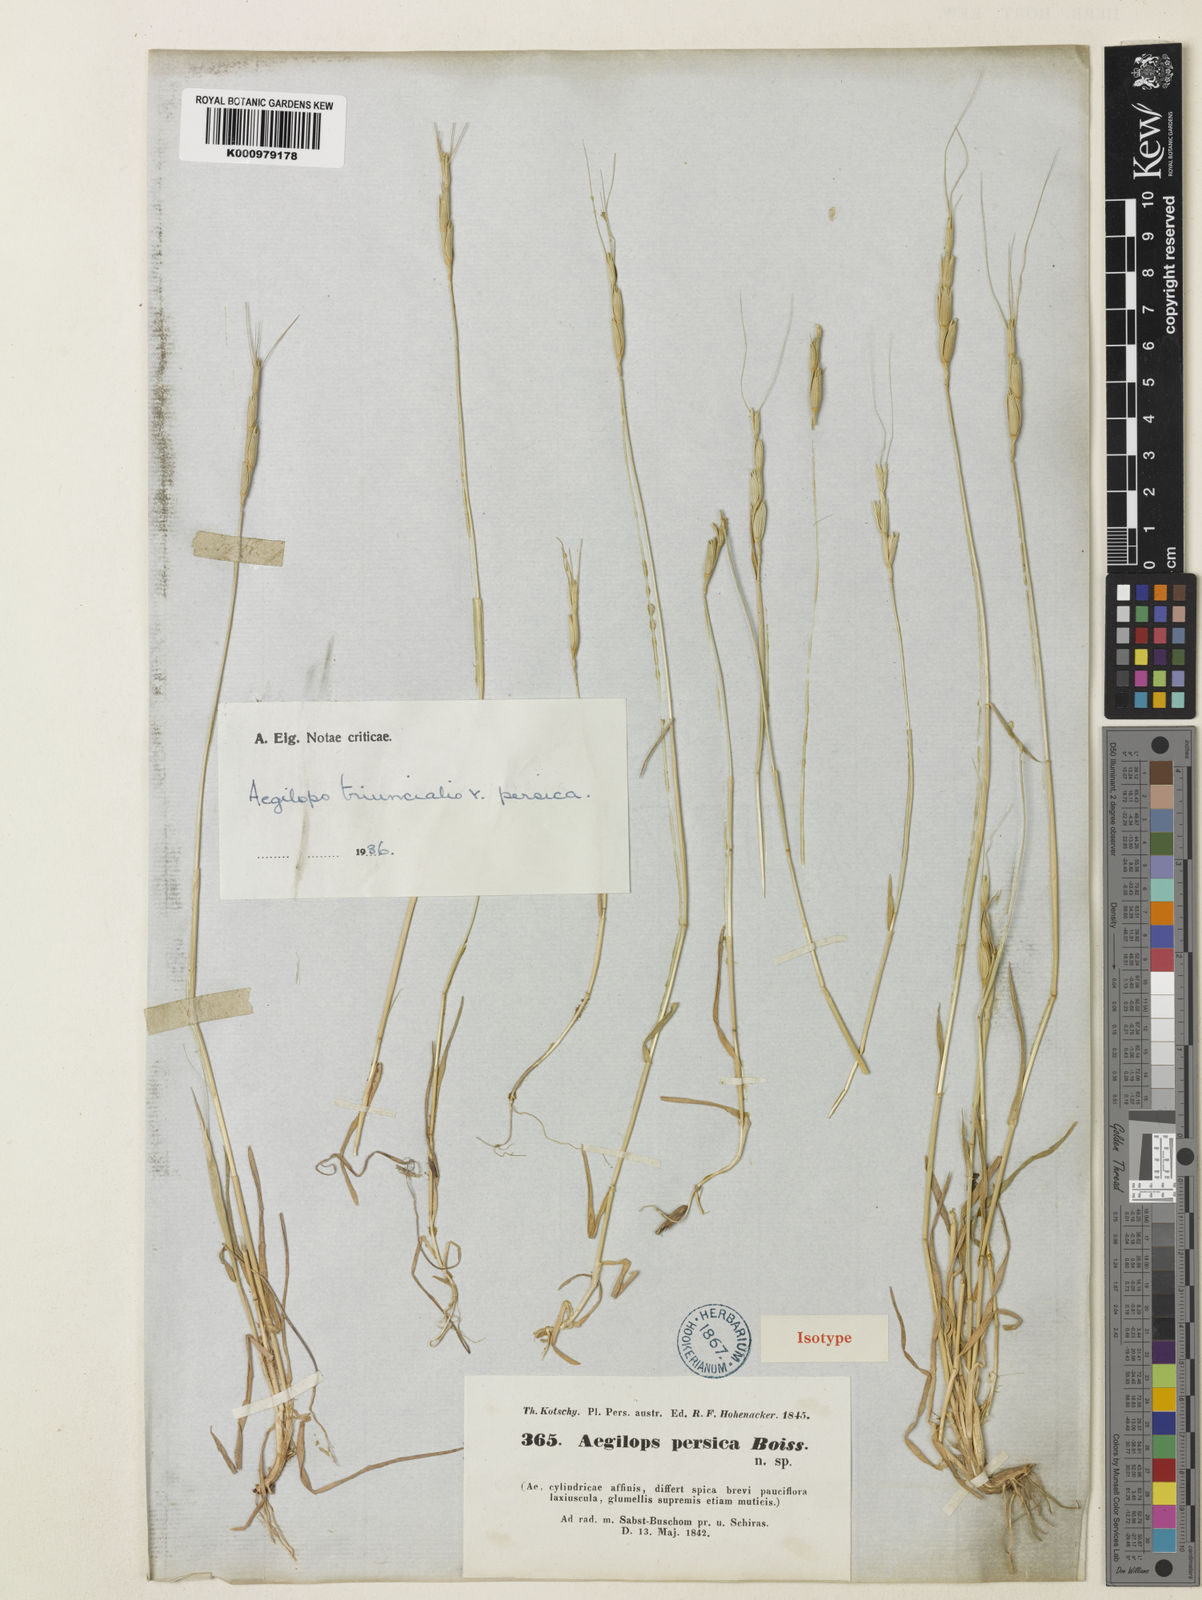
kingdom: Plantae
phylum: Tracheophyta
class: Liliopsida
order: Poales
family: Poaceae
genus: Aegilops
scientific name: Aegilops triuncialis
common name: Barb goat grass
